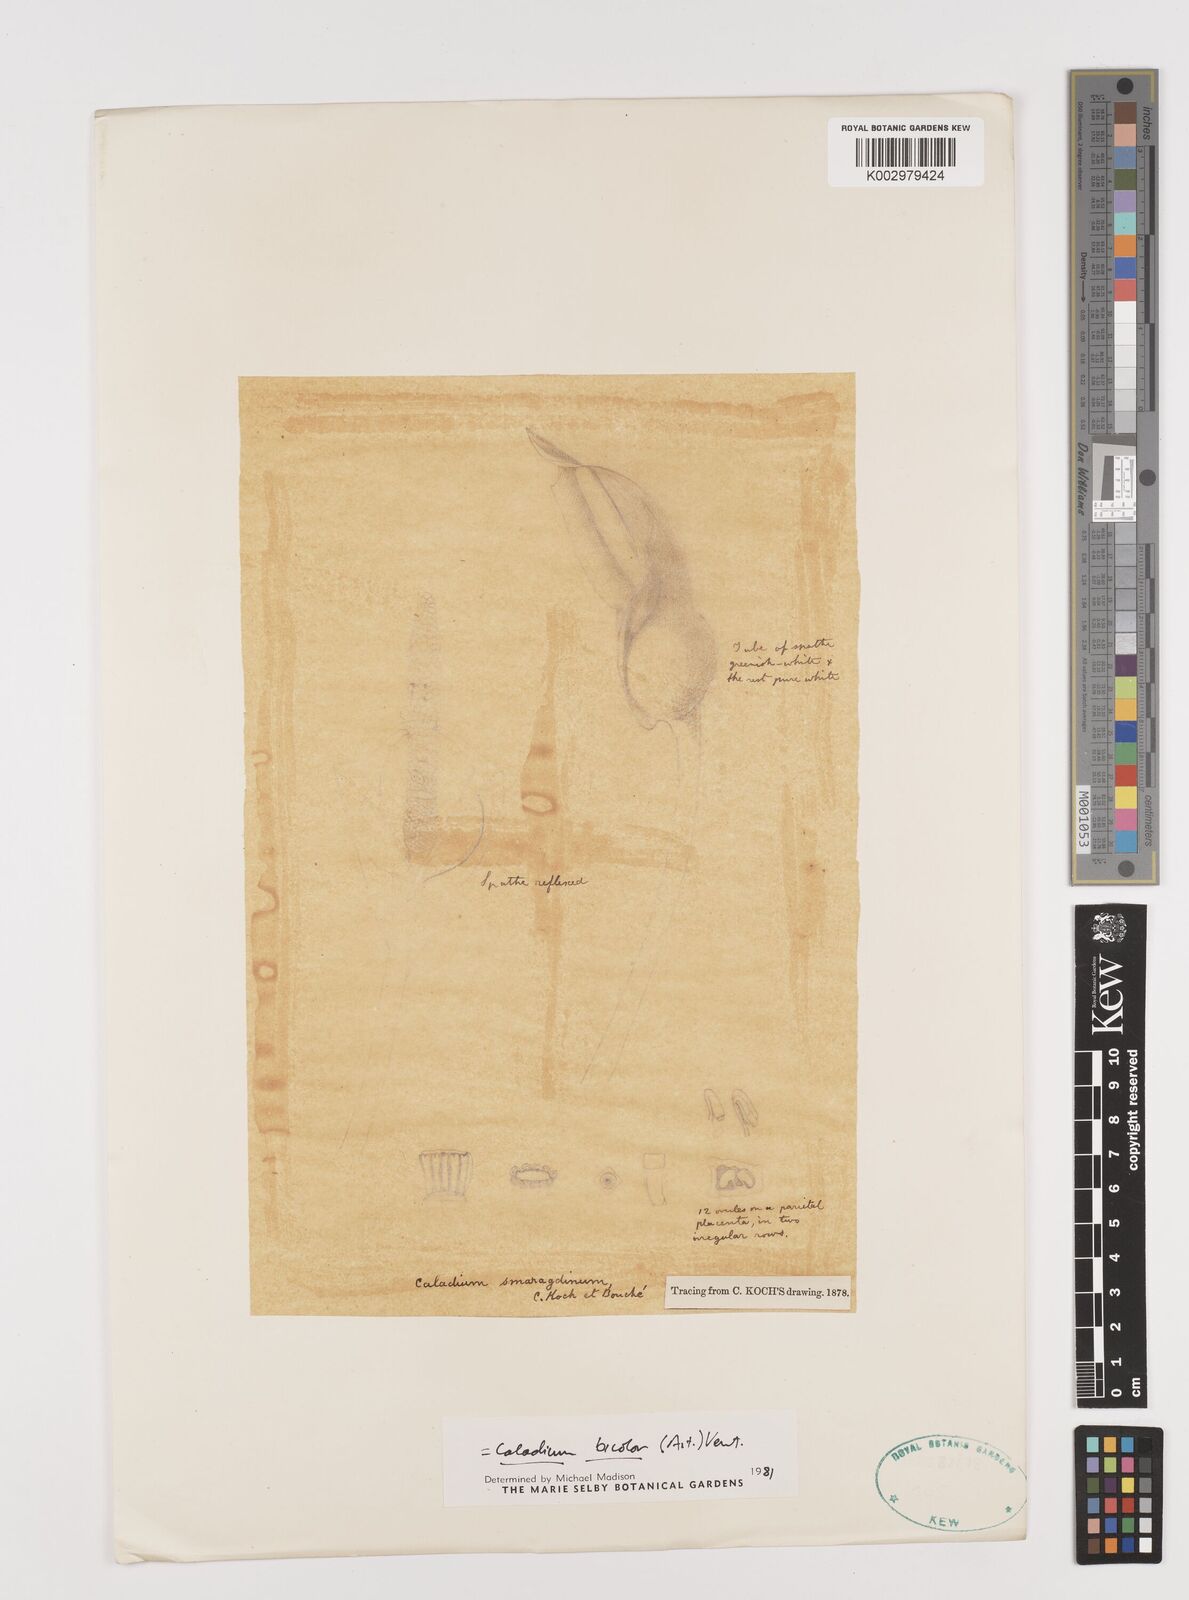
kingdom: Plantae
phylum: Tracheophyta
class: Liliopsida
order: Alismatales
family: Araceae
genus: Caladium
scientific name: Caladium bicolor
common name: Artist's pallet
